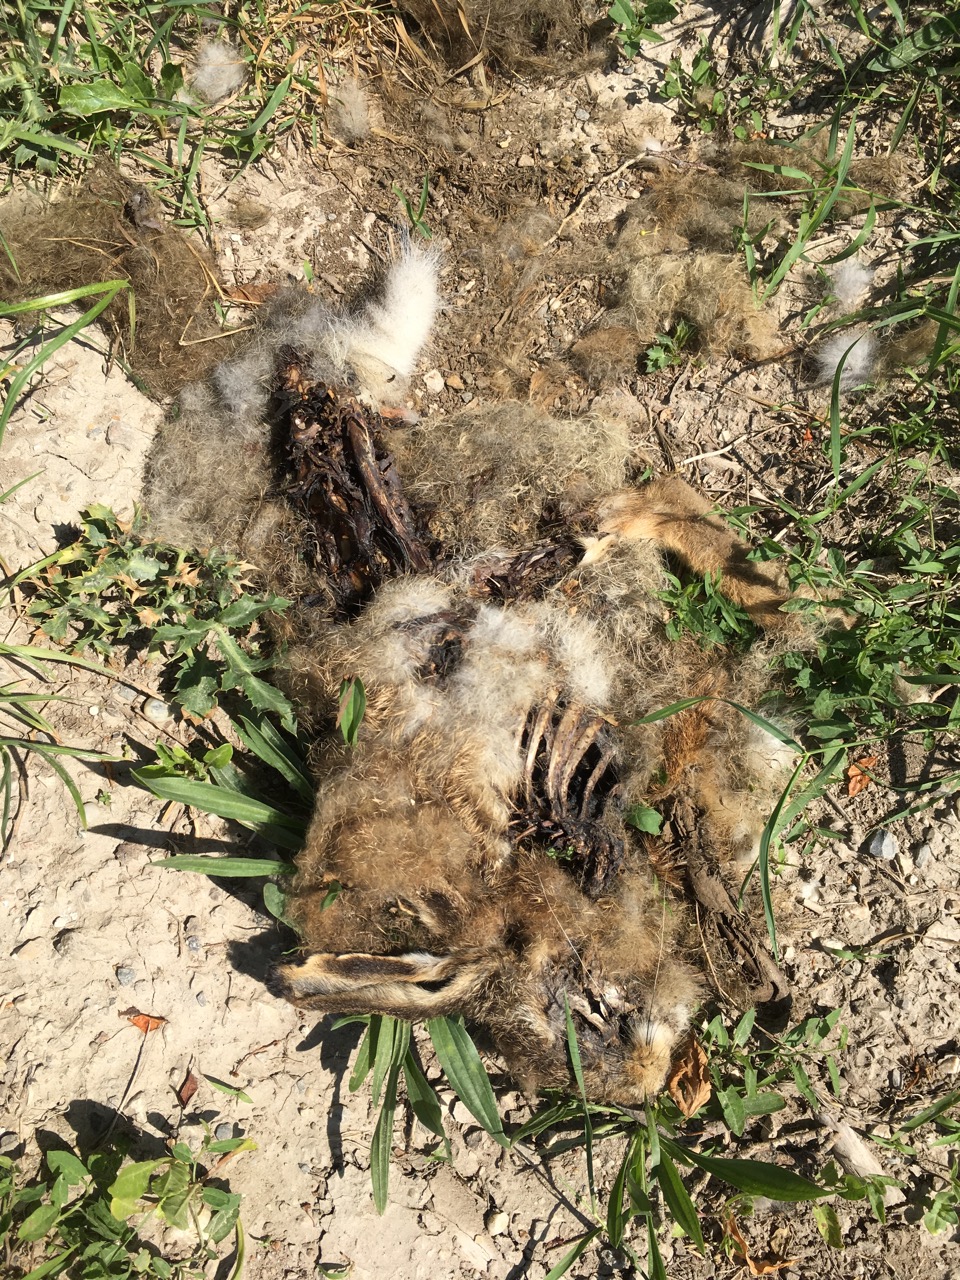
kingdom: Animalia
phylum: Chordata
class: Mammalia
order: Lagomorpha
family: Leporidae
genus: Lepus
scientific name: Lepus europaeus
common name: European hare
